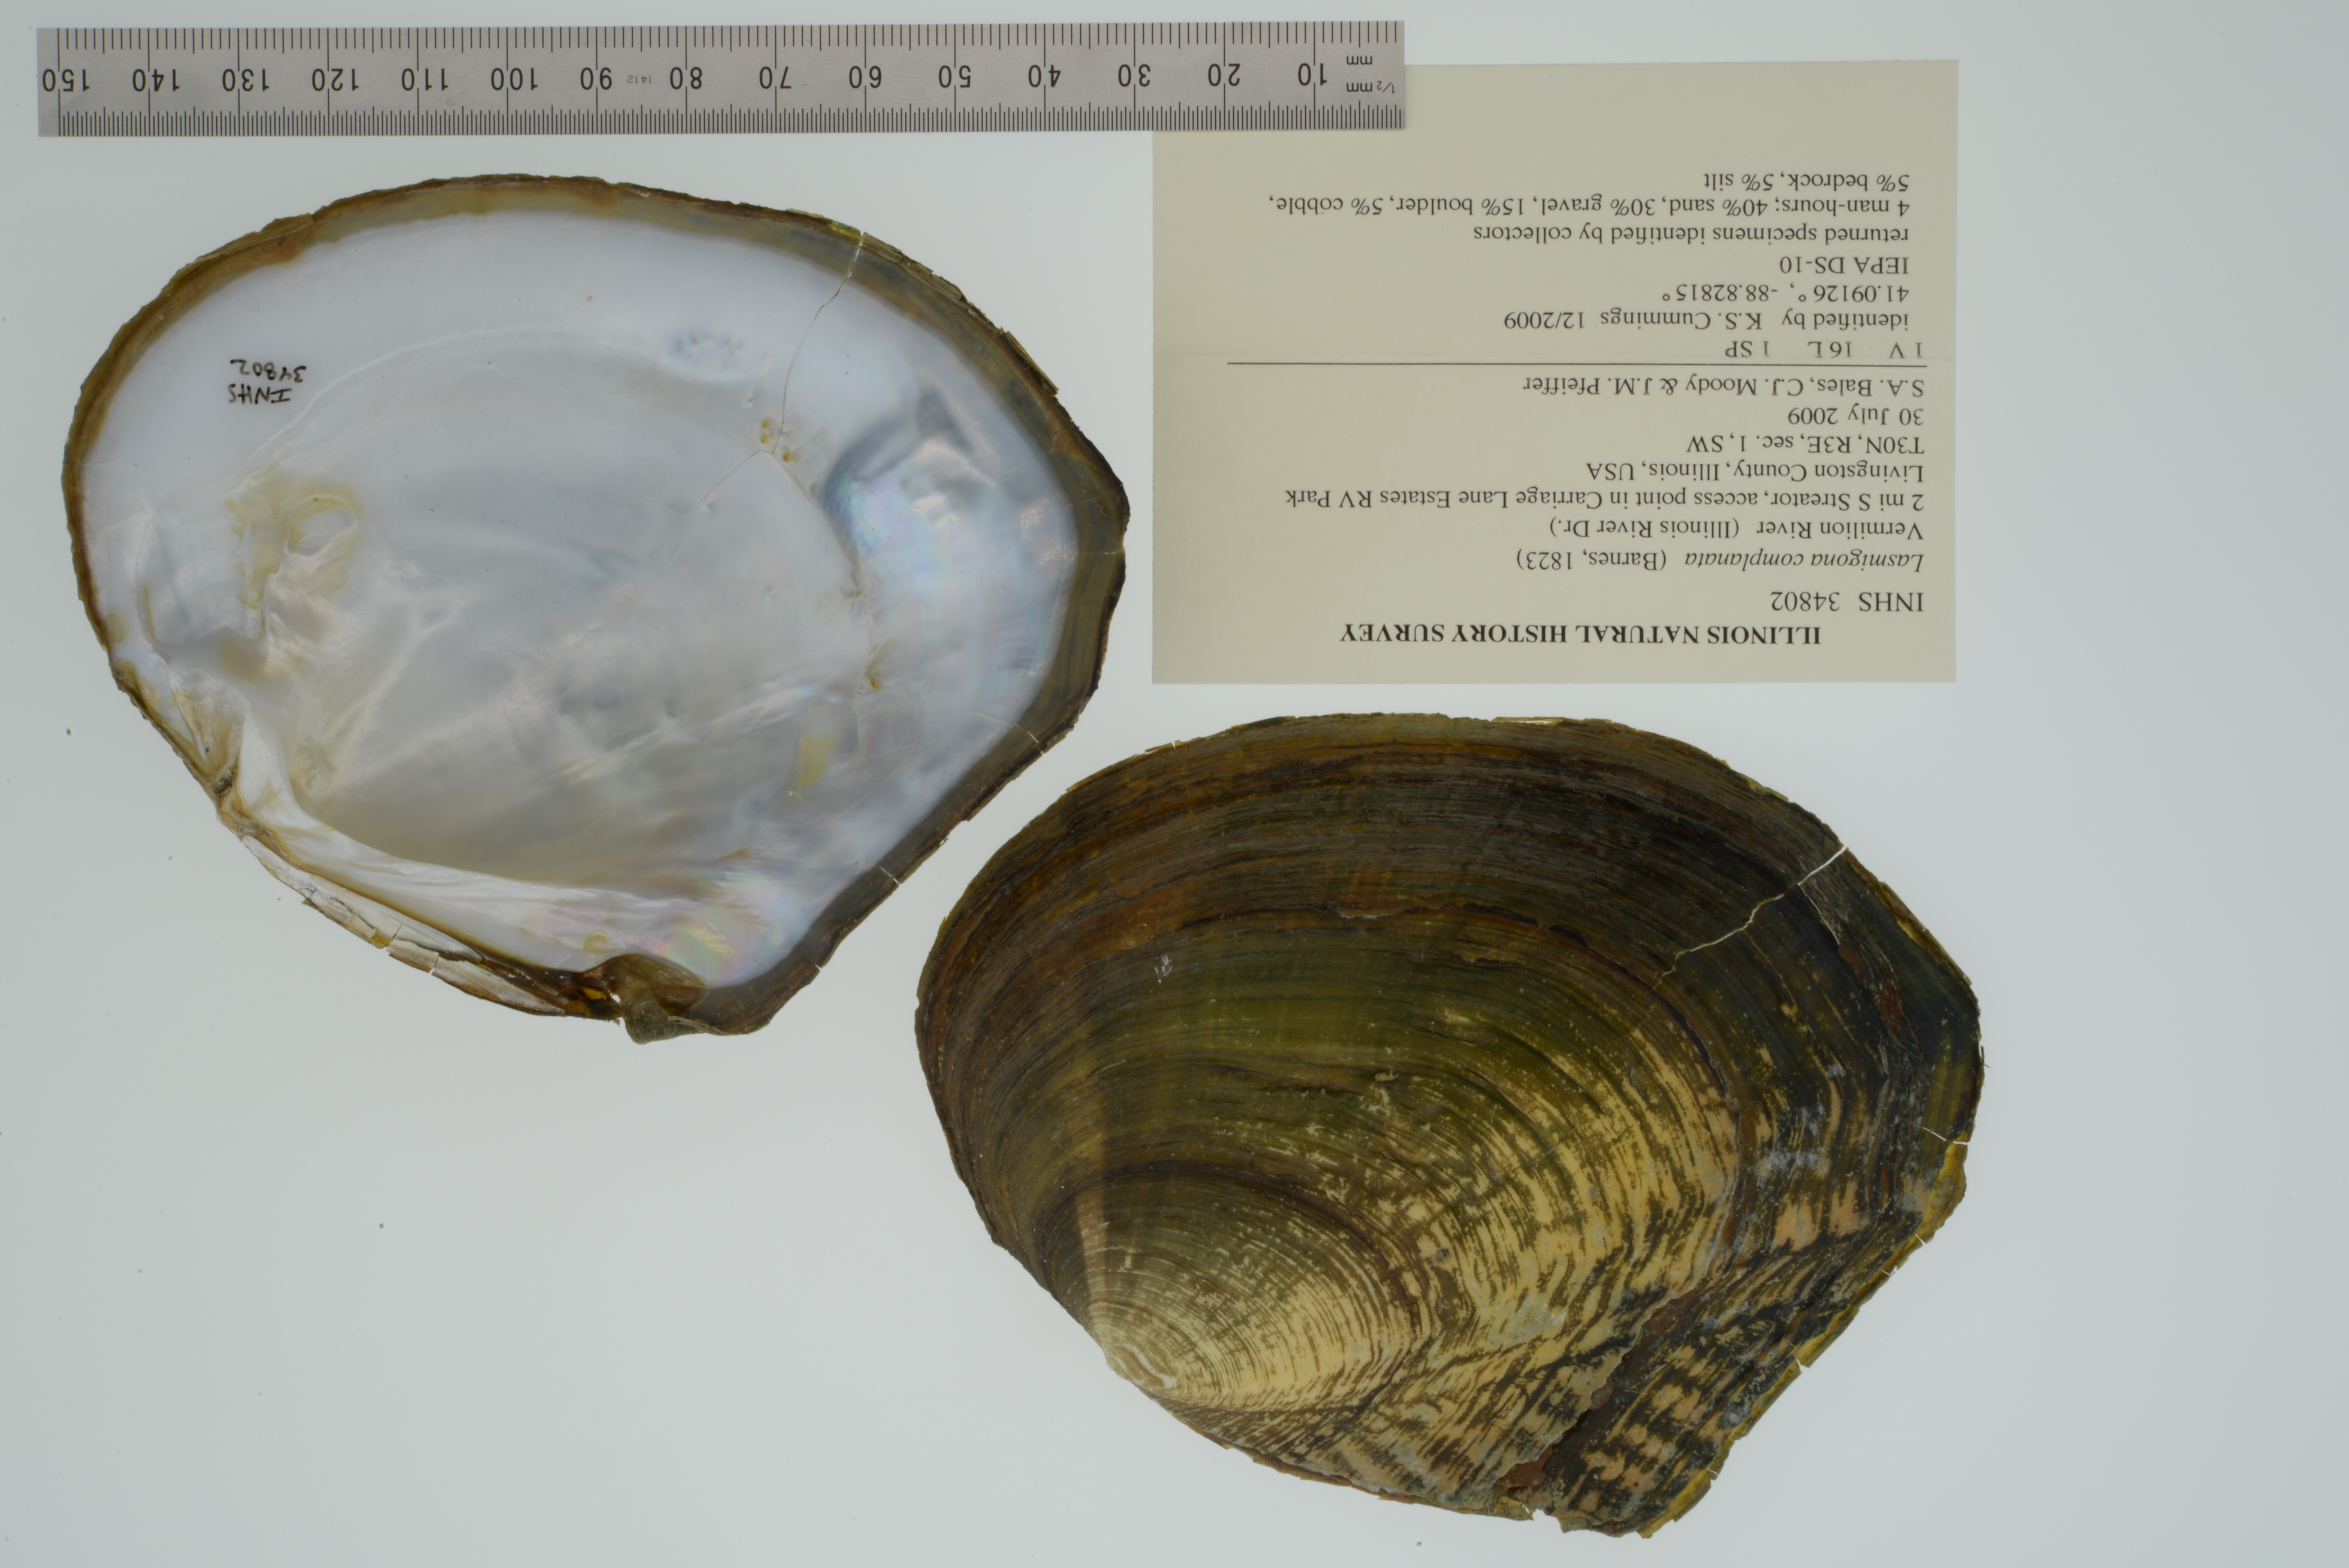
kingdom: Animalia
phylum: Mollusca
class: Bivalvia
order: Unionida
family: Unionidae
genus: Lasmigona
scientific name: Lasmigona complanata
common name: White heelsplitter
